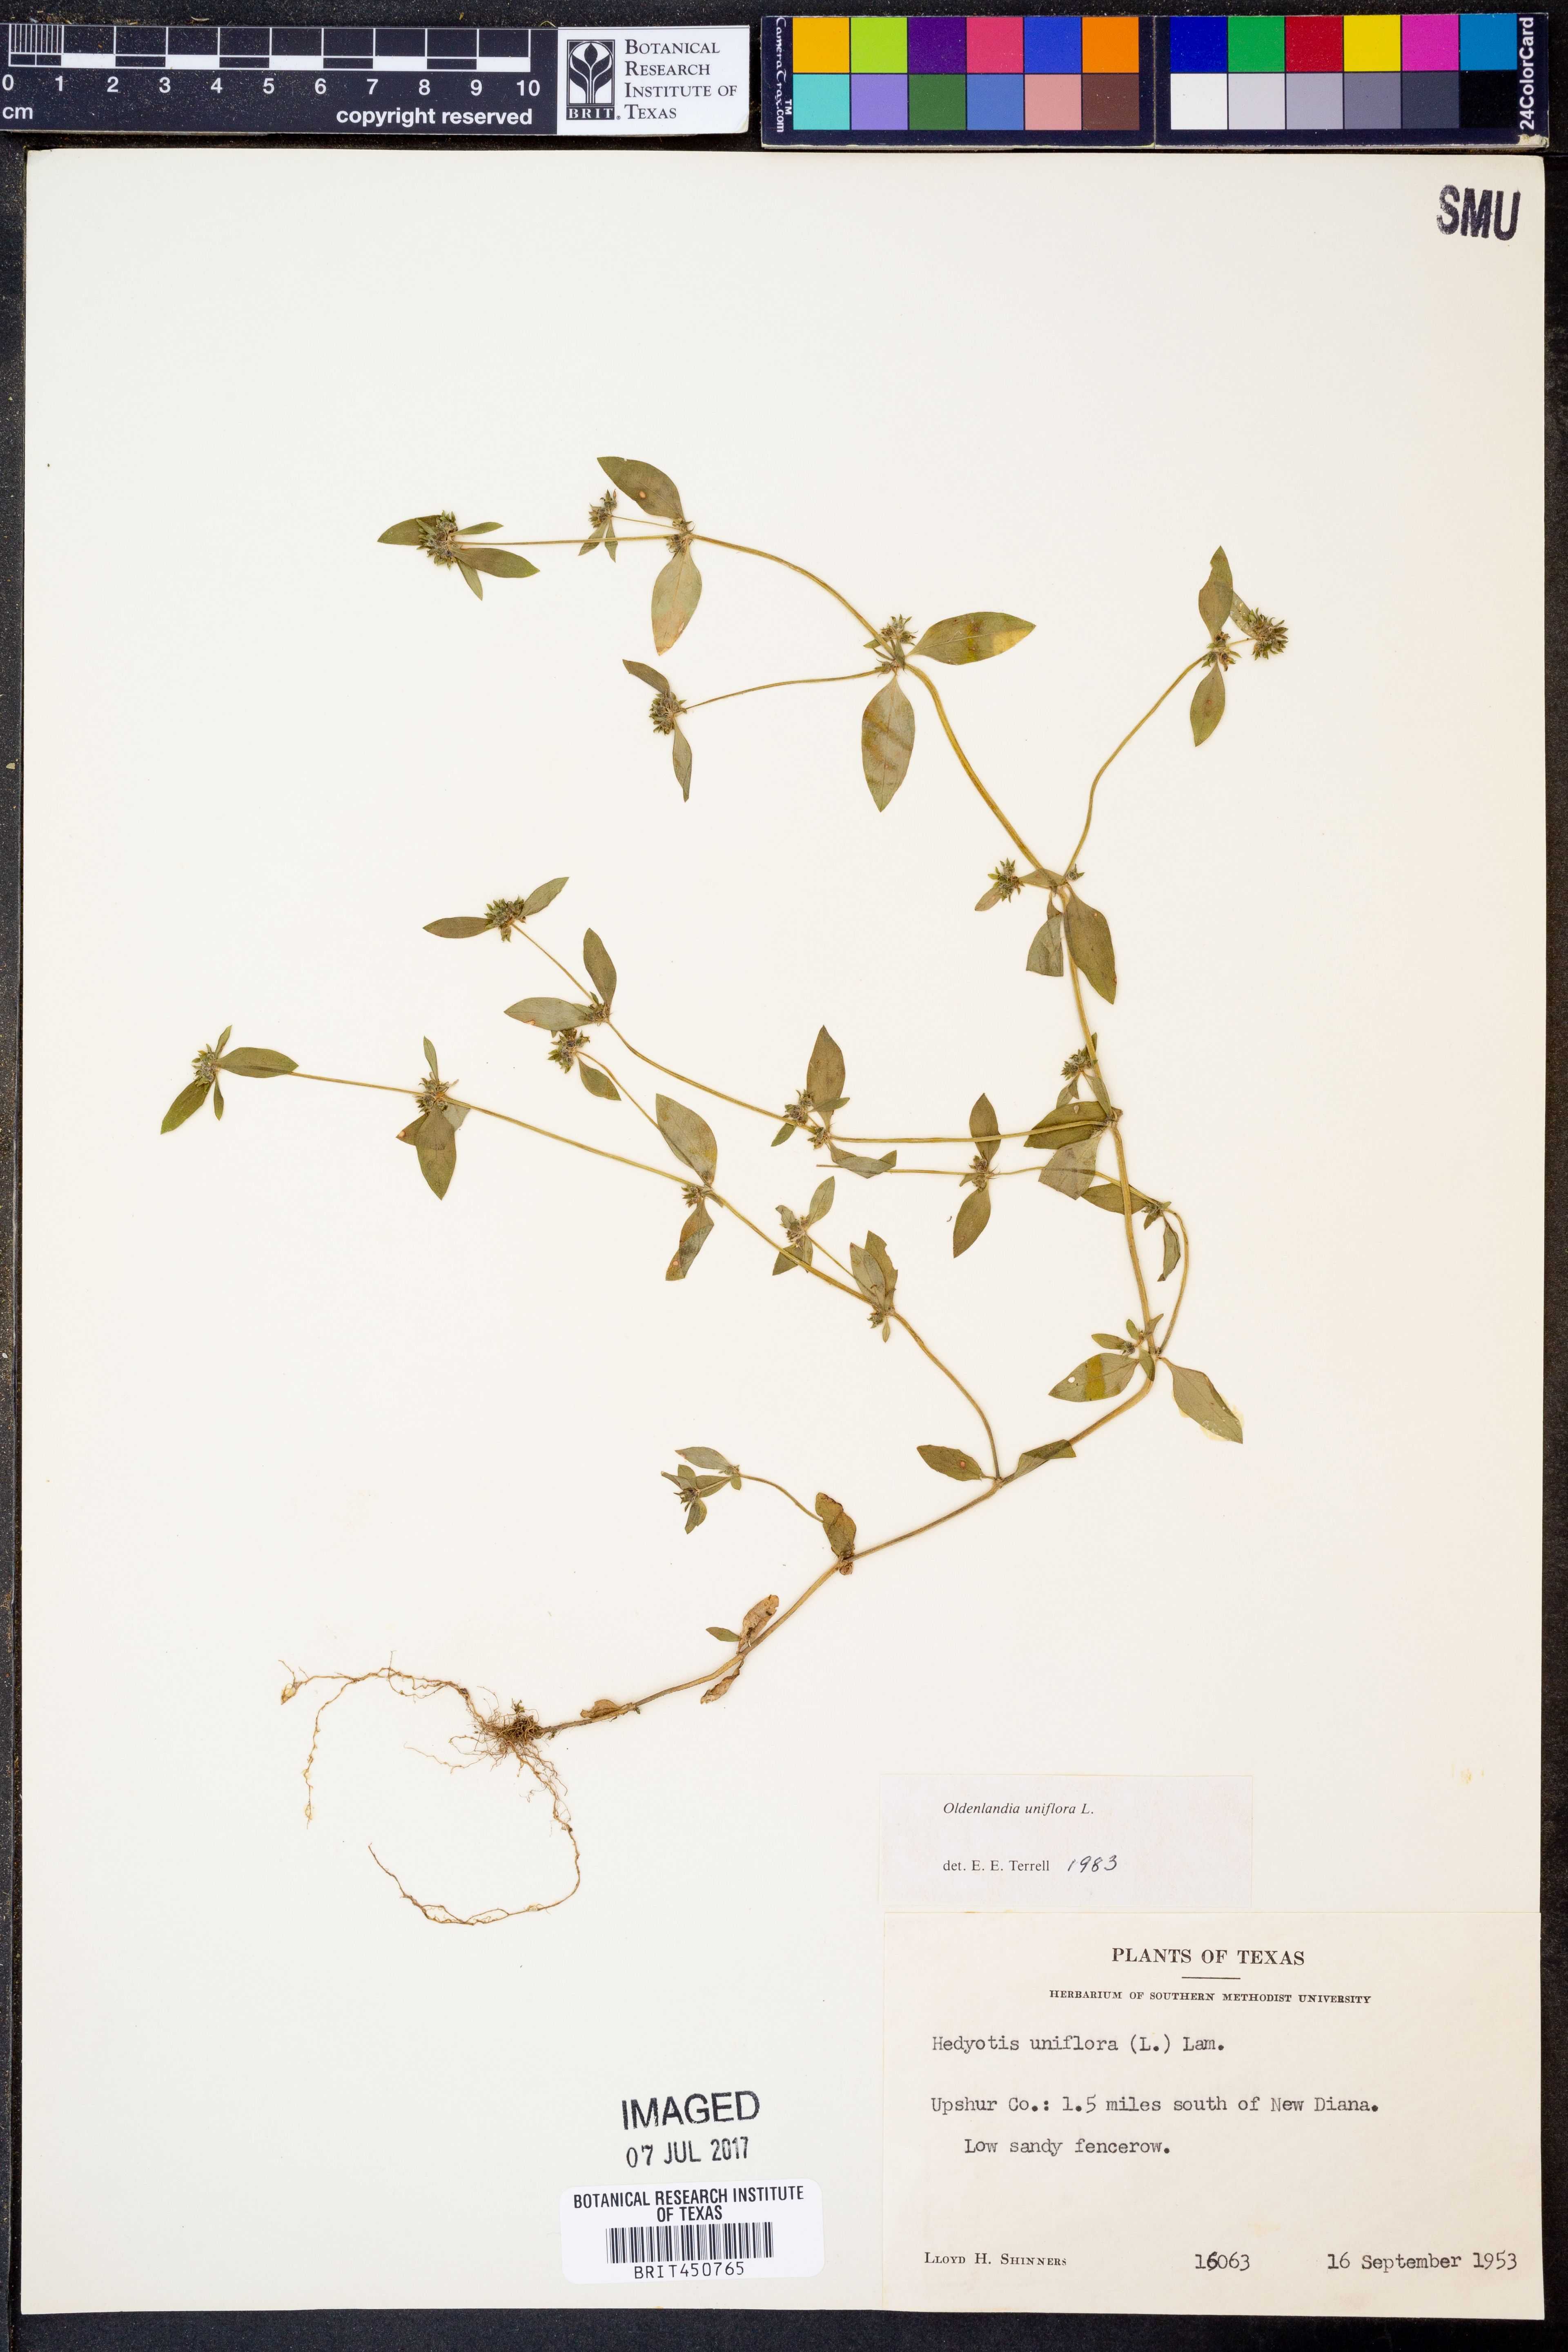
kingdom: Plantae
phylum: Tracheophyta
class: Magnoliopsida
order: Gentianales
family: Rubiaceae
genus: Edrastima
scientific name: Edrastima uniflora
